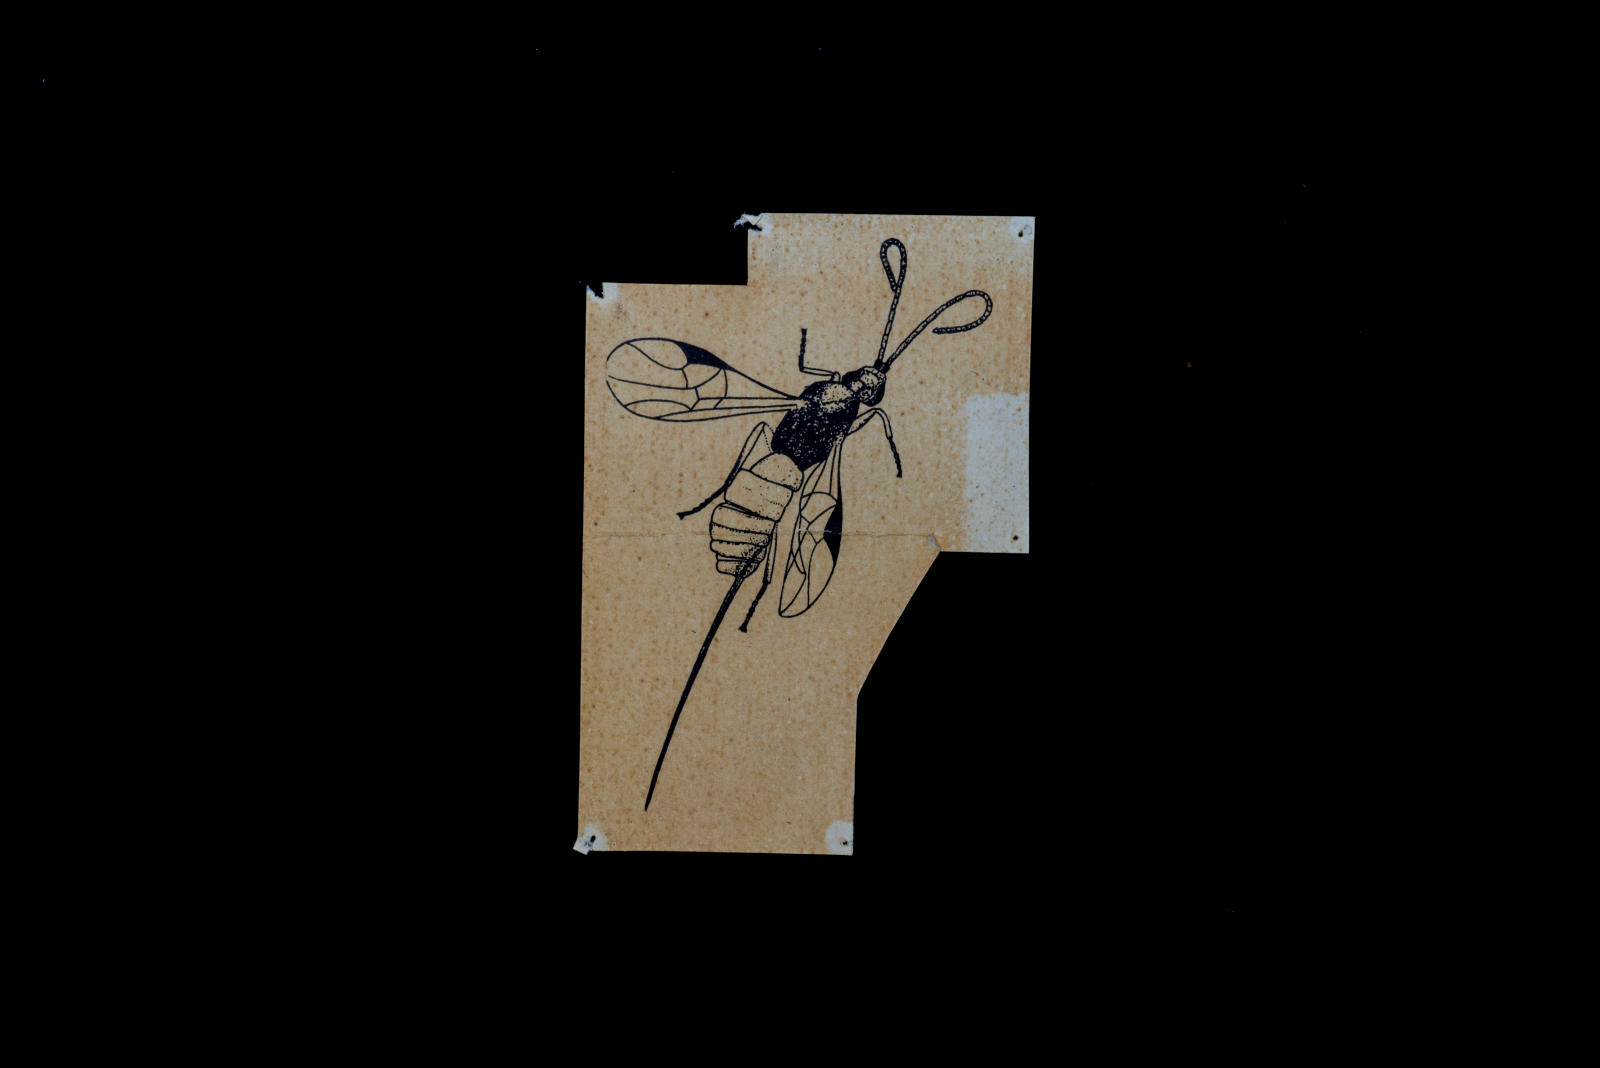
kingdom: Animalia
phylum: Arthropoda
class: Insecta
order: Hymenoptera
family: Braconidae
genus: Eubazus
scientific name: Eubazus
